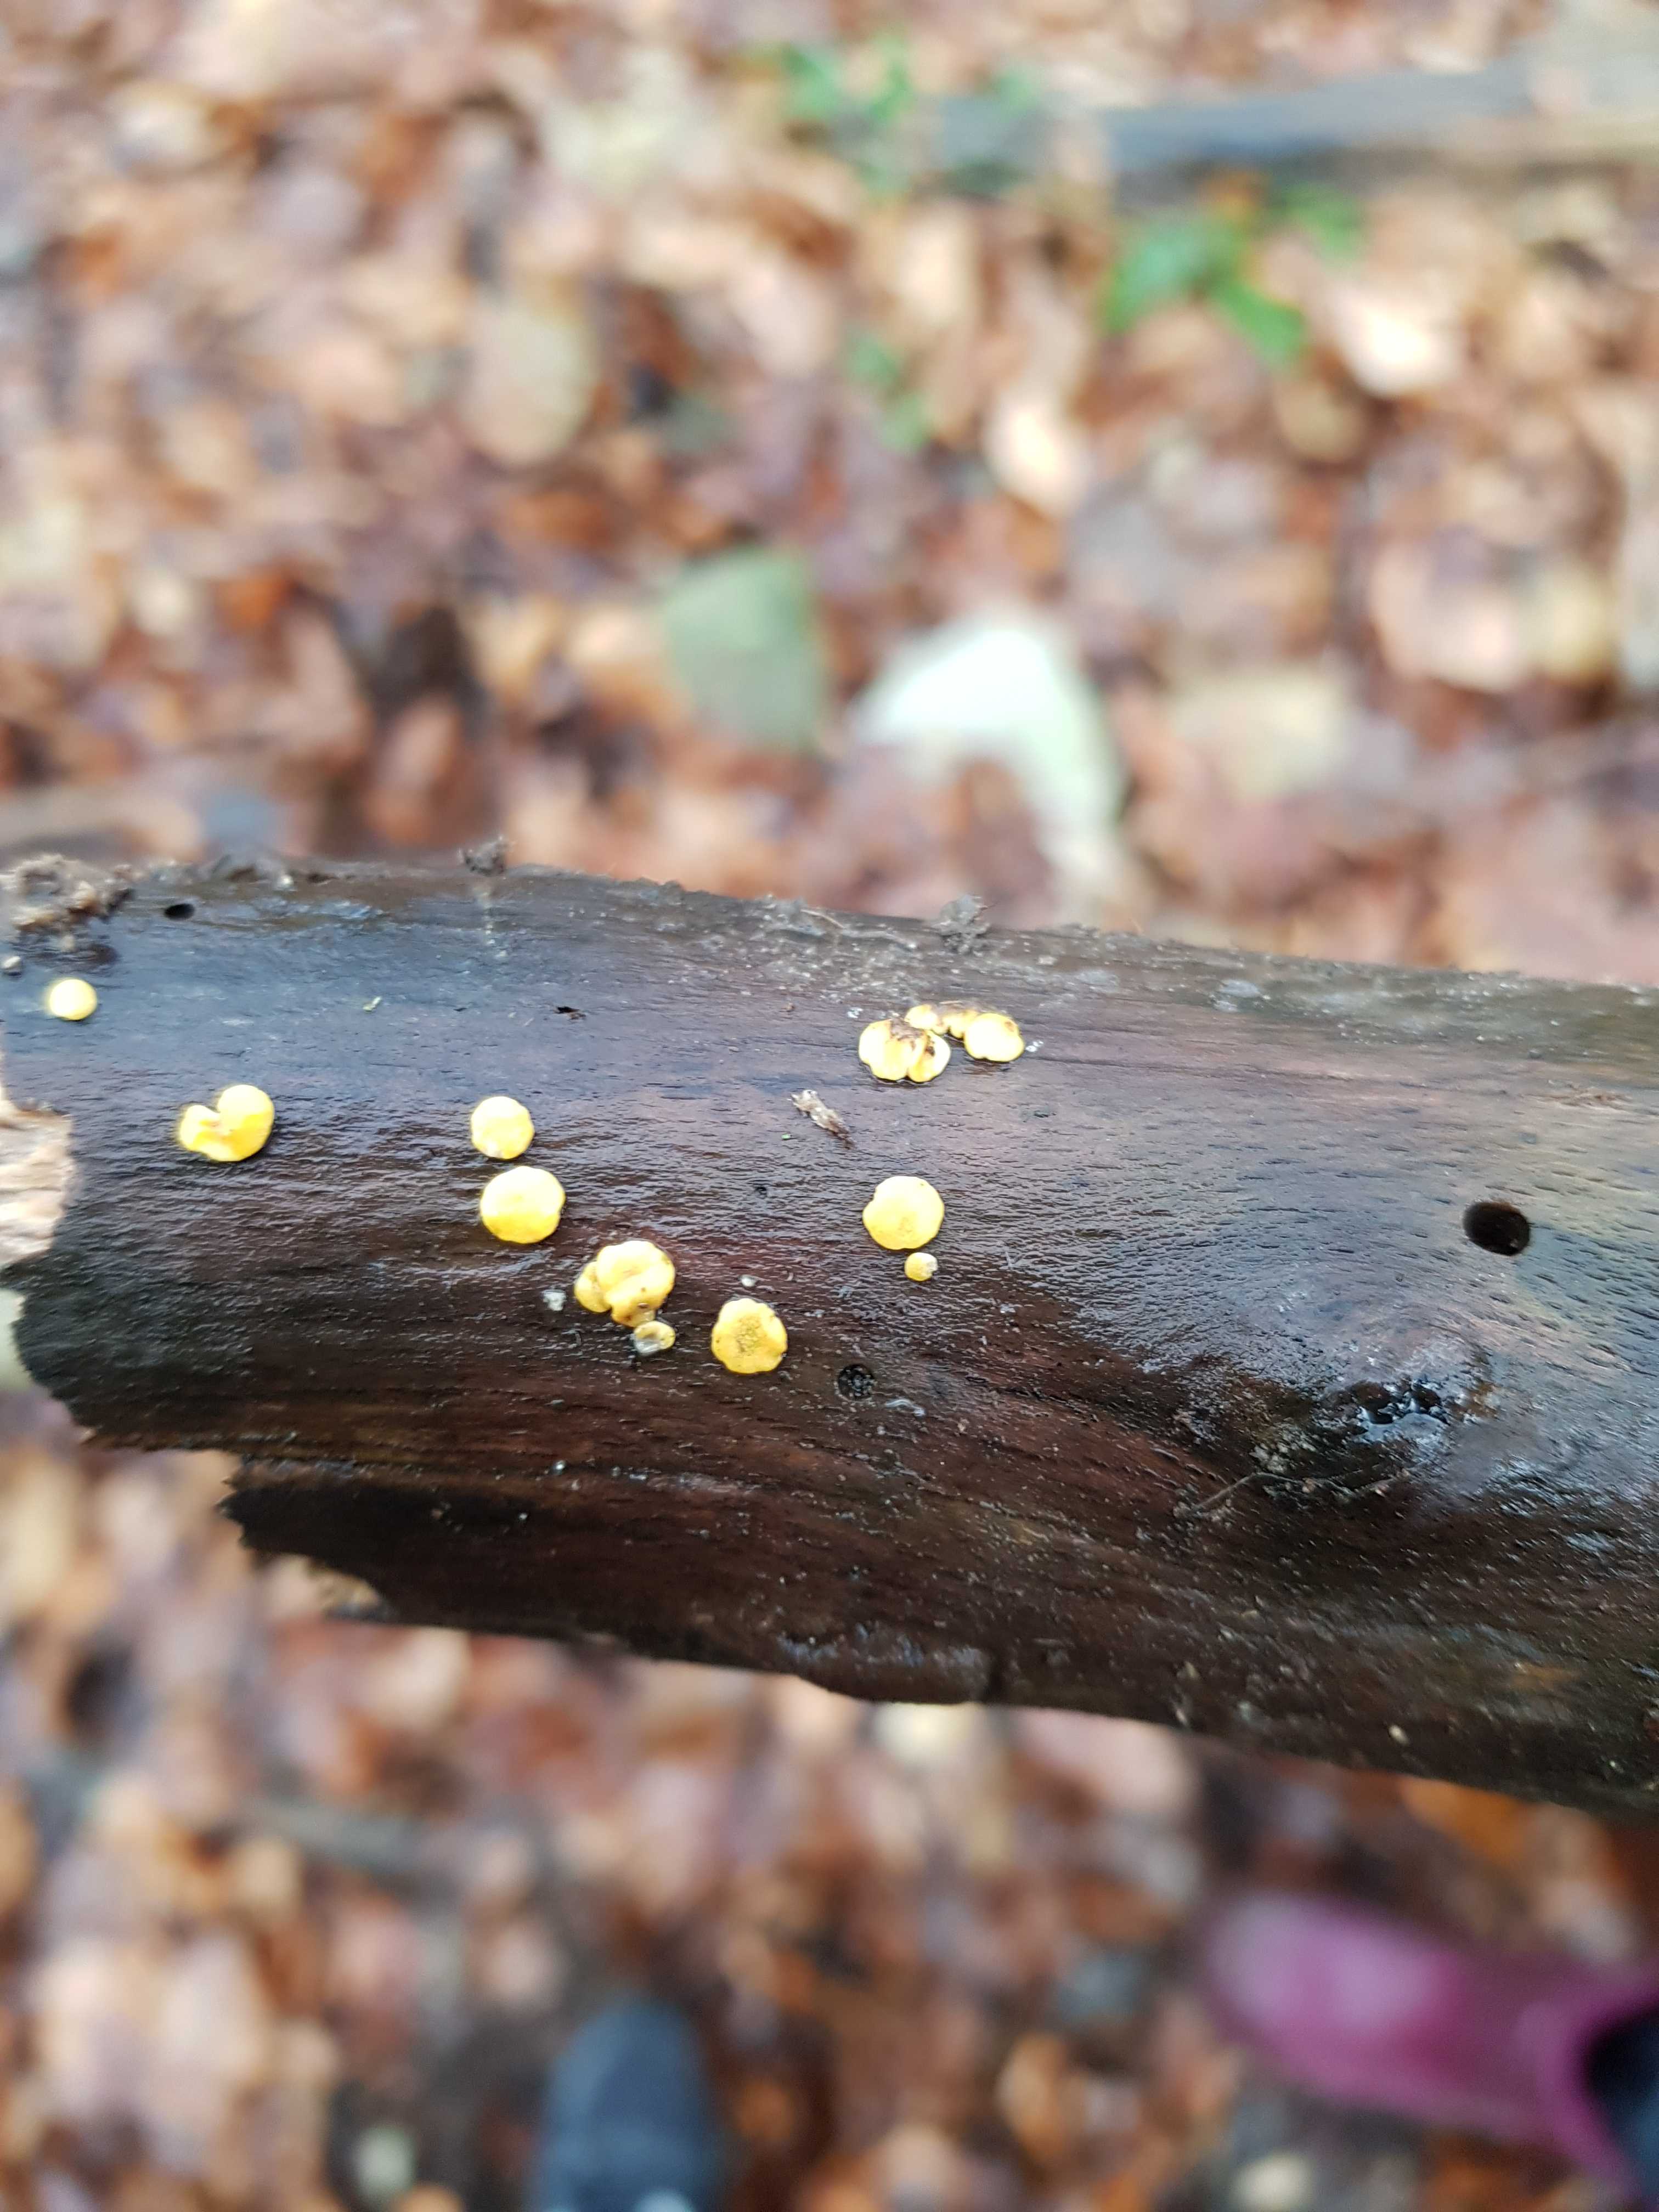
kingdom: Fungi
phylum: Ascomycota
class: Leotiomycetes
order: Helotiales
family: Pezizellaceae
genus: Calycina
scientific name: Calycina citrina
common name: almindelig gulskive
